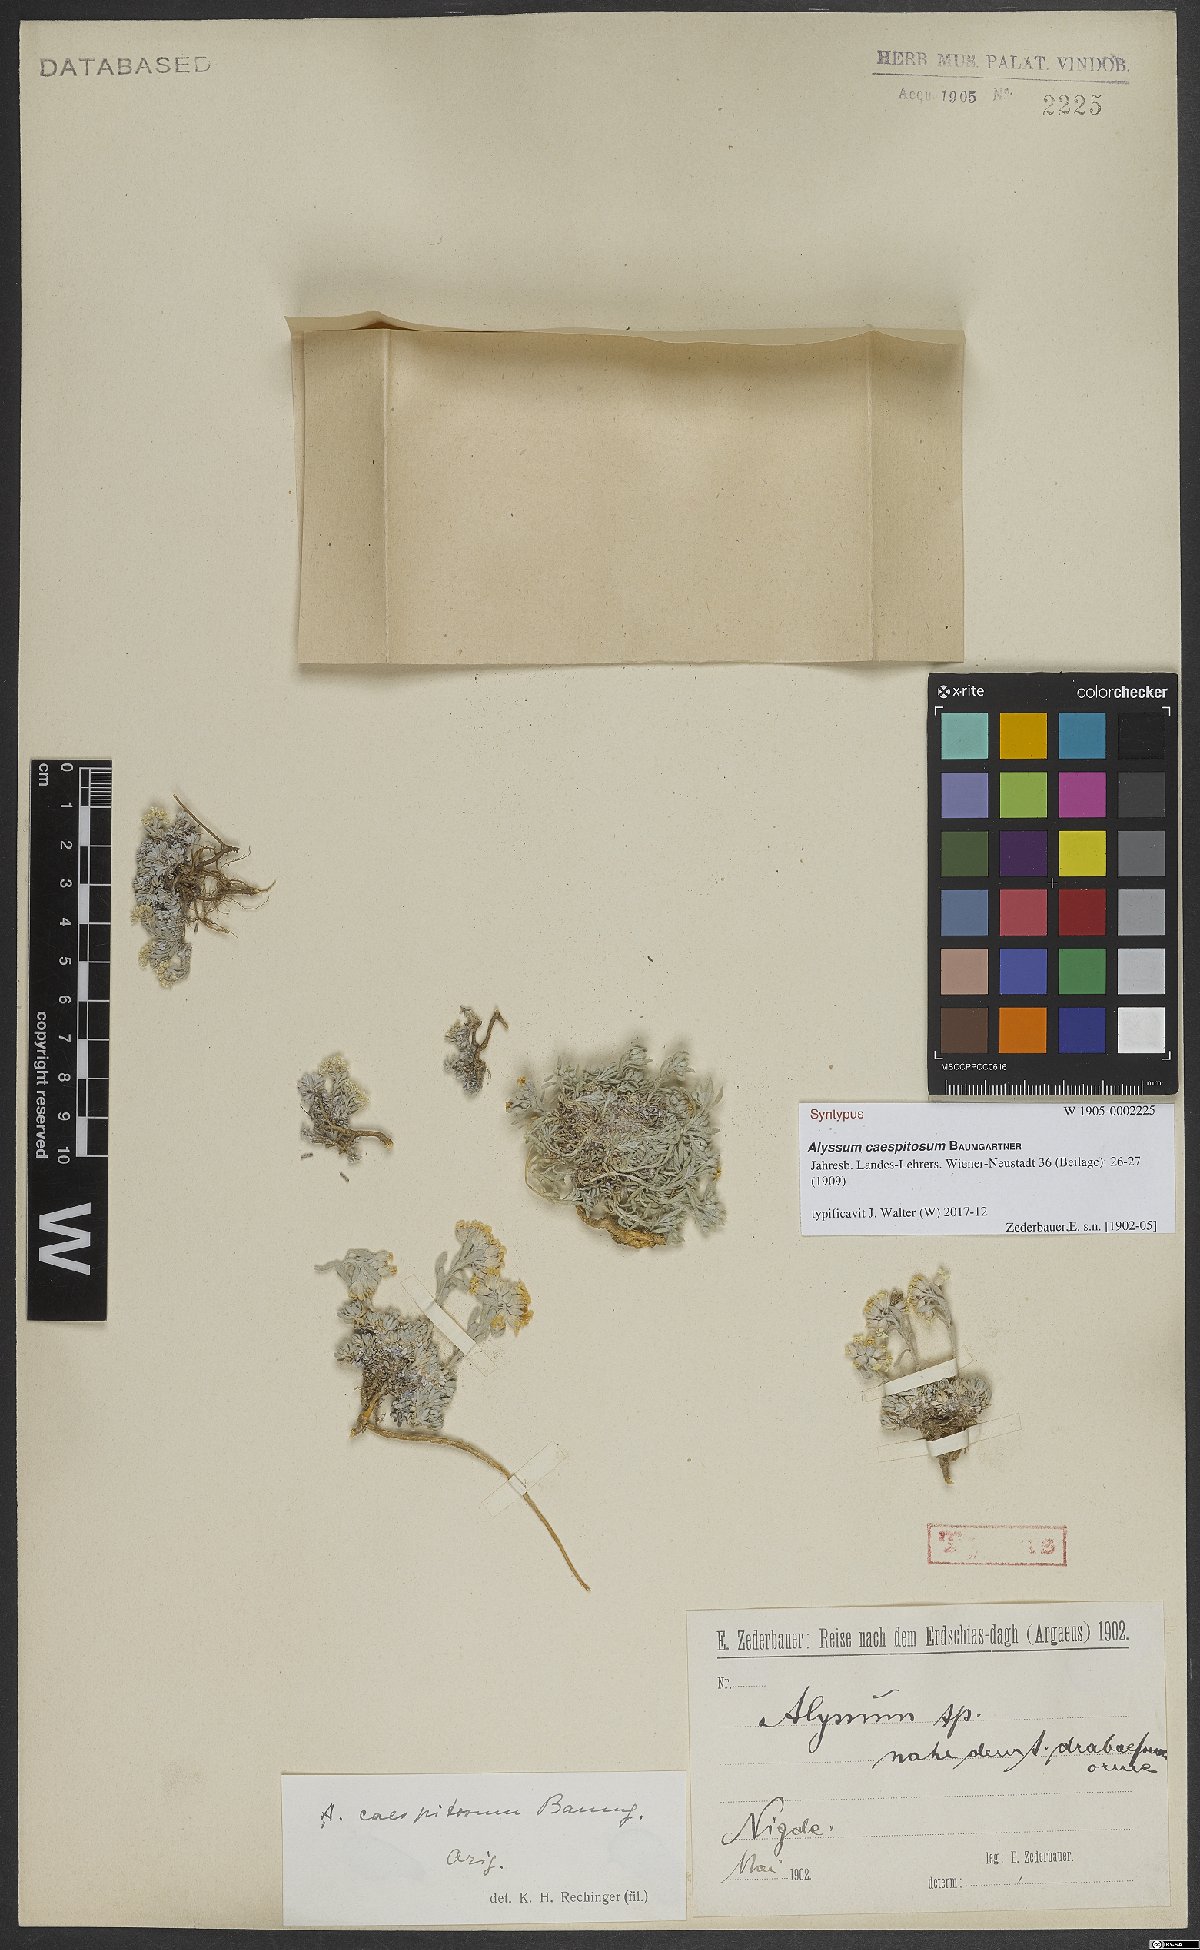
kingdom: Plantae
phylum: Tracheophyta
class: Magnoliopsida
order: Brassicales
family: Brassicaceae
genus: Alyssum
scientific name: Alyssum caespitosum
